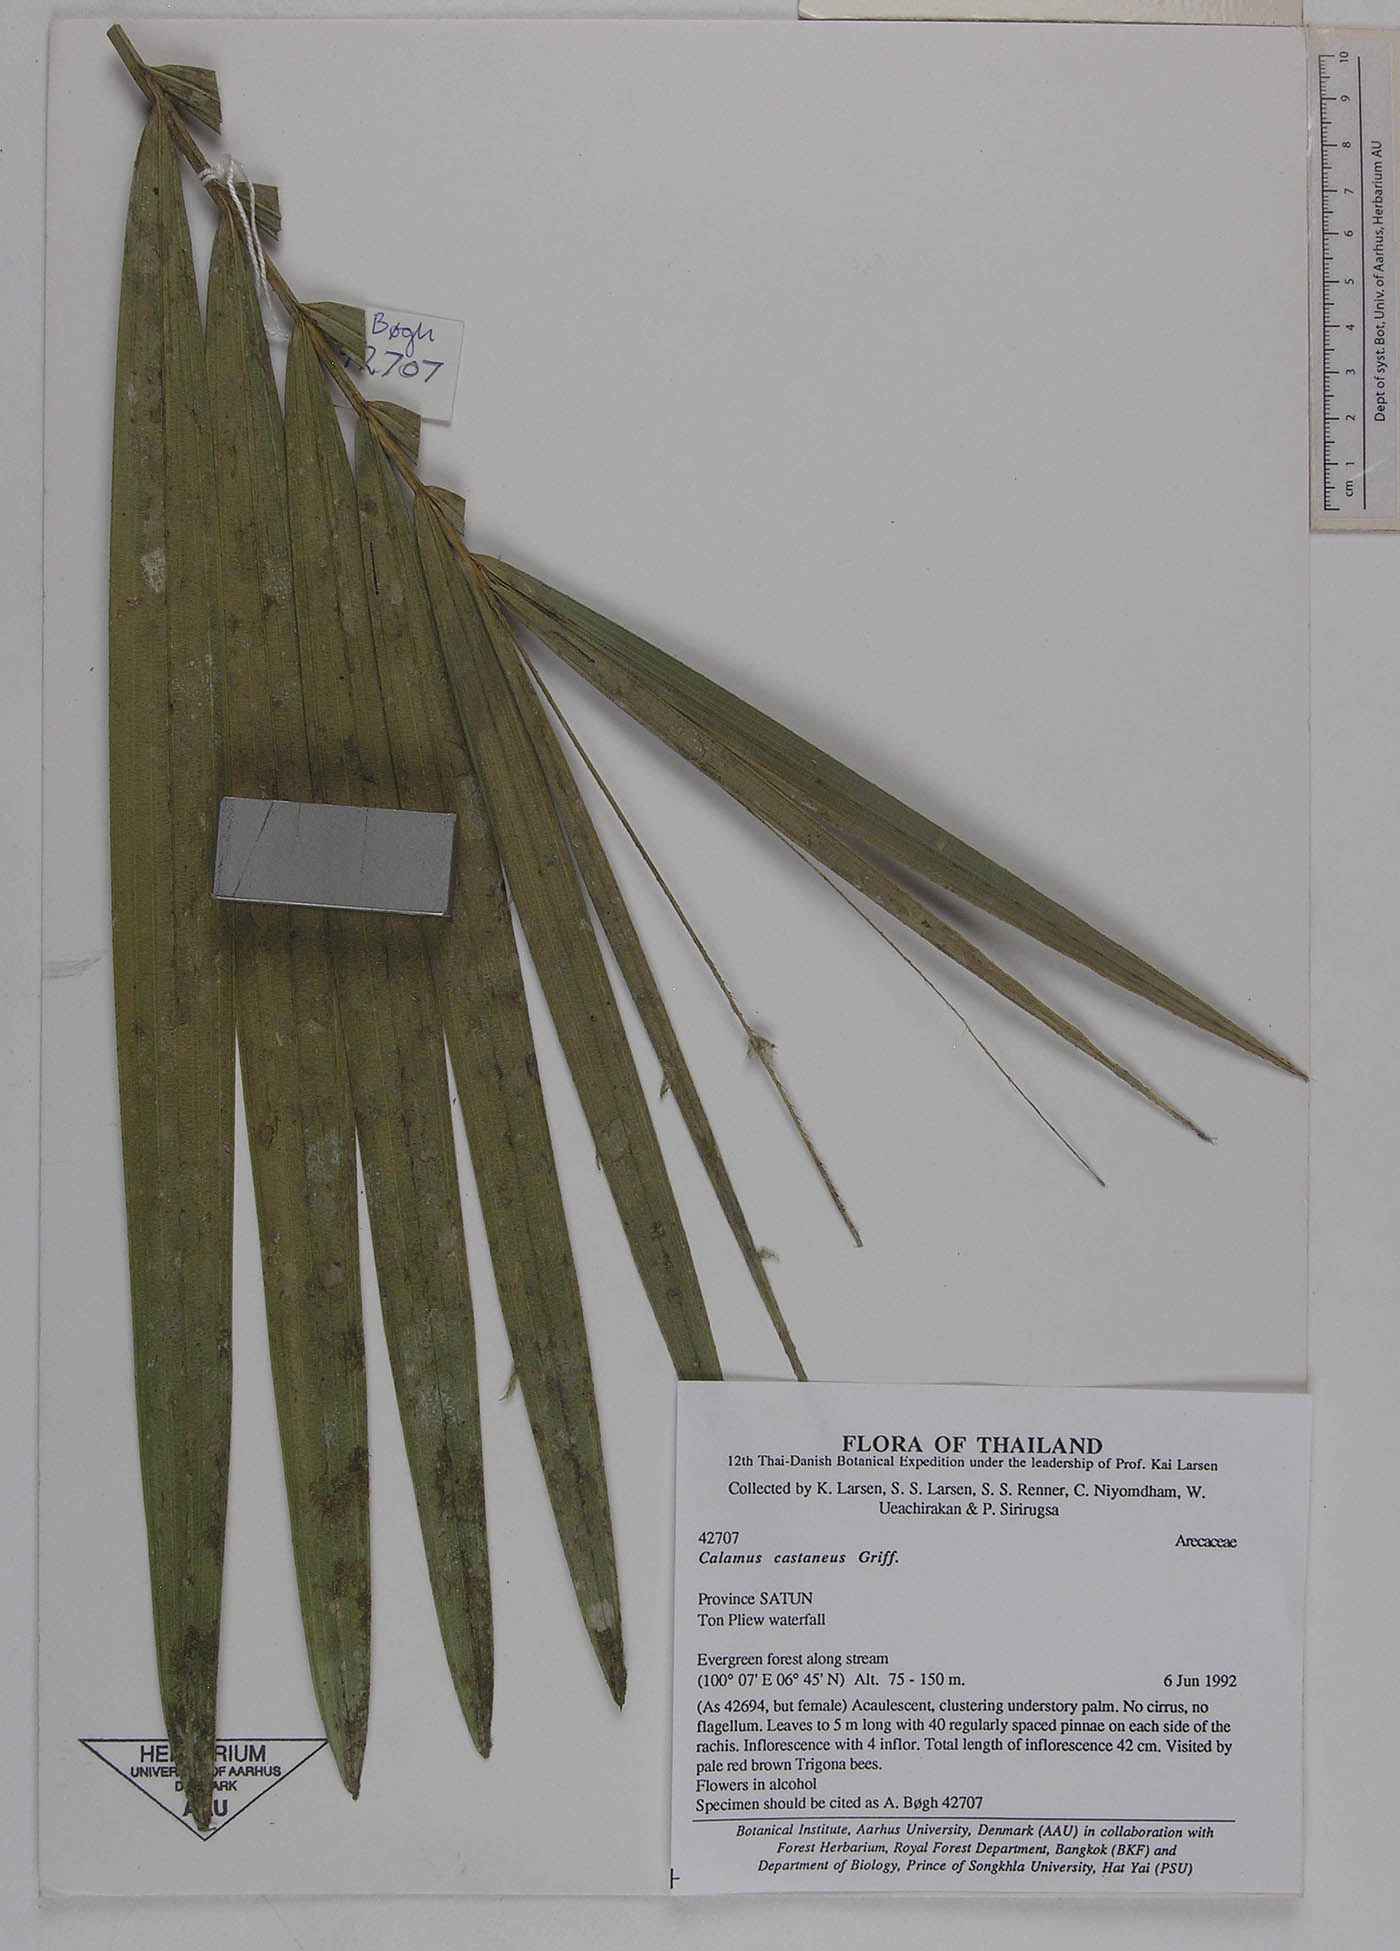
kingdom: Plantae
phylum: Tracheophyta
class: Liliopsida
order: Arecales
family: Arecaceae
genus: Calamus
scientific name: Calamus castaneus
